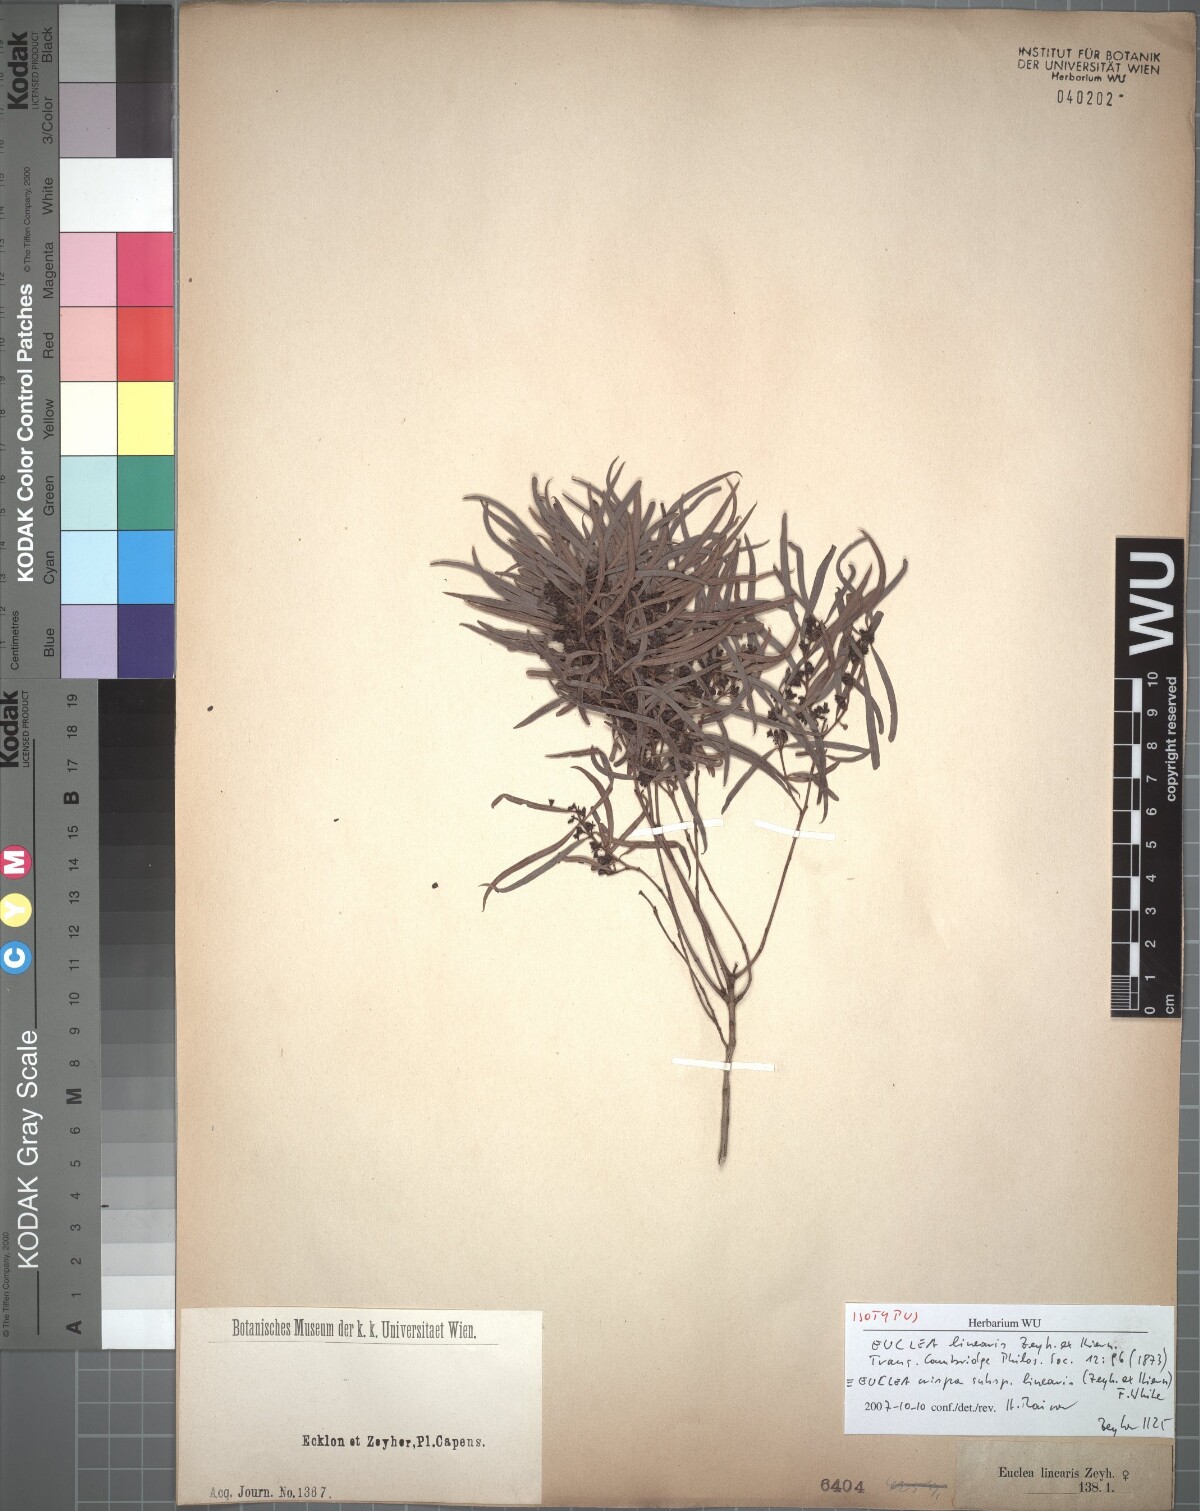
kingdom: Plantae
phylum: Tracheophyta
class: Magnoliopsida
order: Ericales
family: Ebenaceae
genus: Euclea
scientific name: Euclea crispa
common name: Blue guarri
